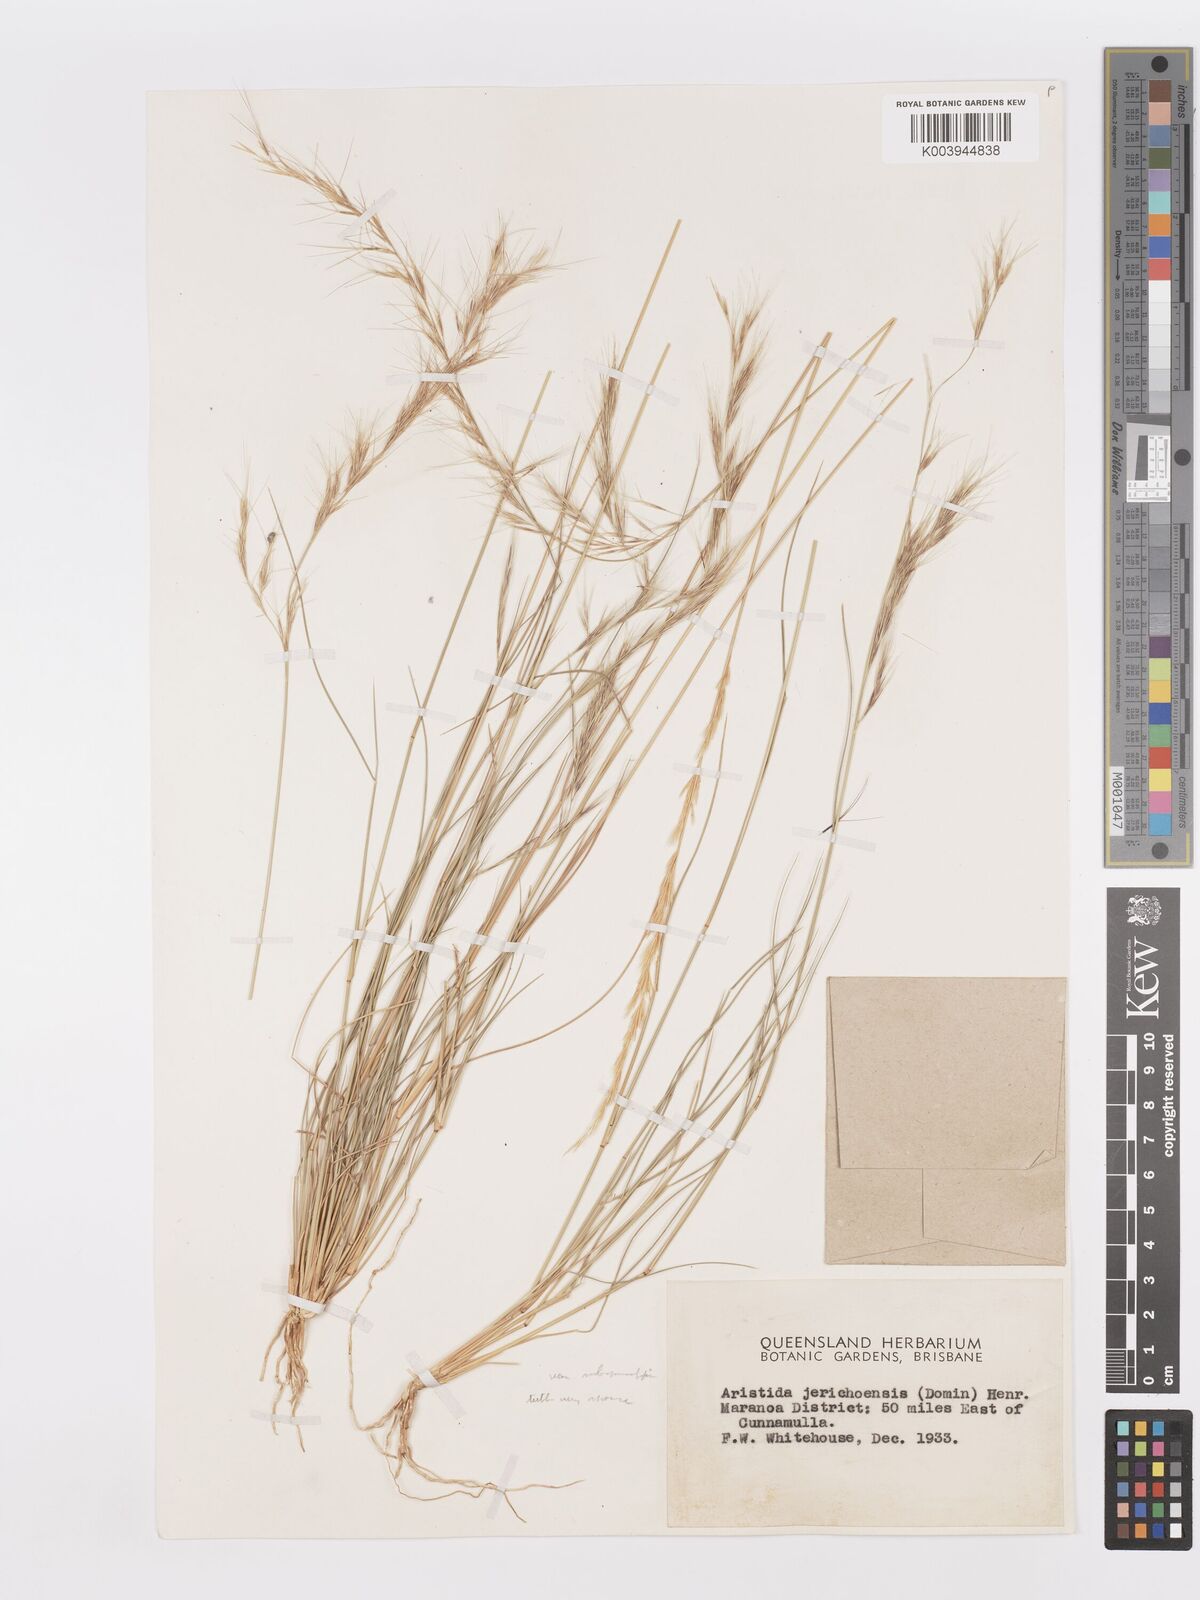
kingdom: Plantae
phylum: Tracheophyta
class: Liliopsida
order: Poales
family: Poaceae
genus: Aristida
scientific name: Aristida jerichoensis
